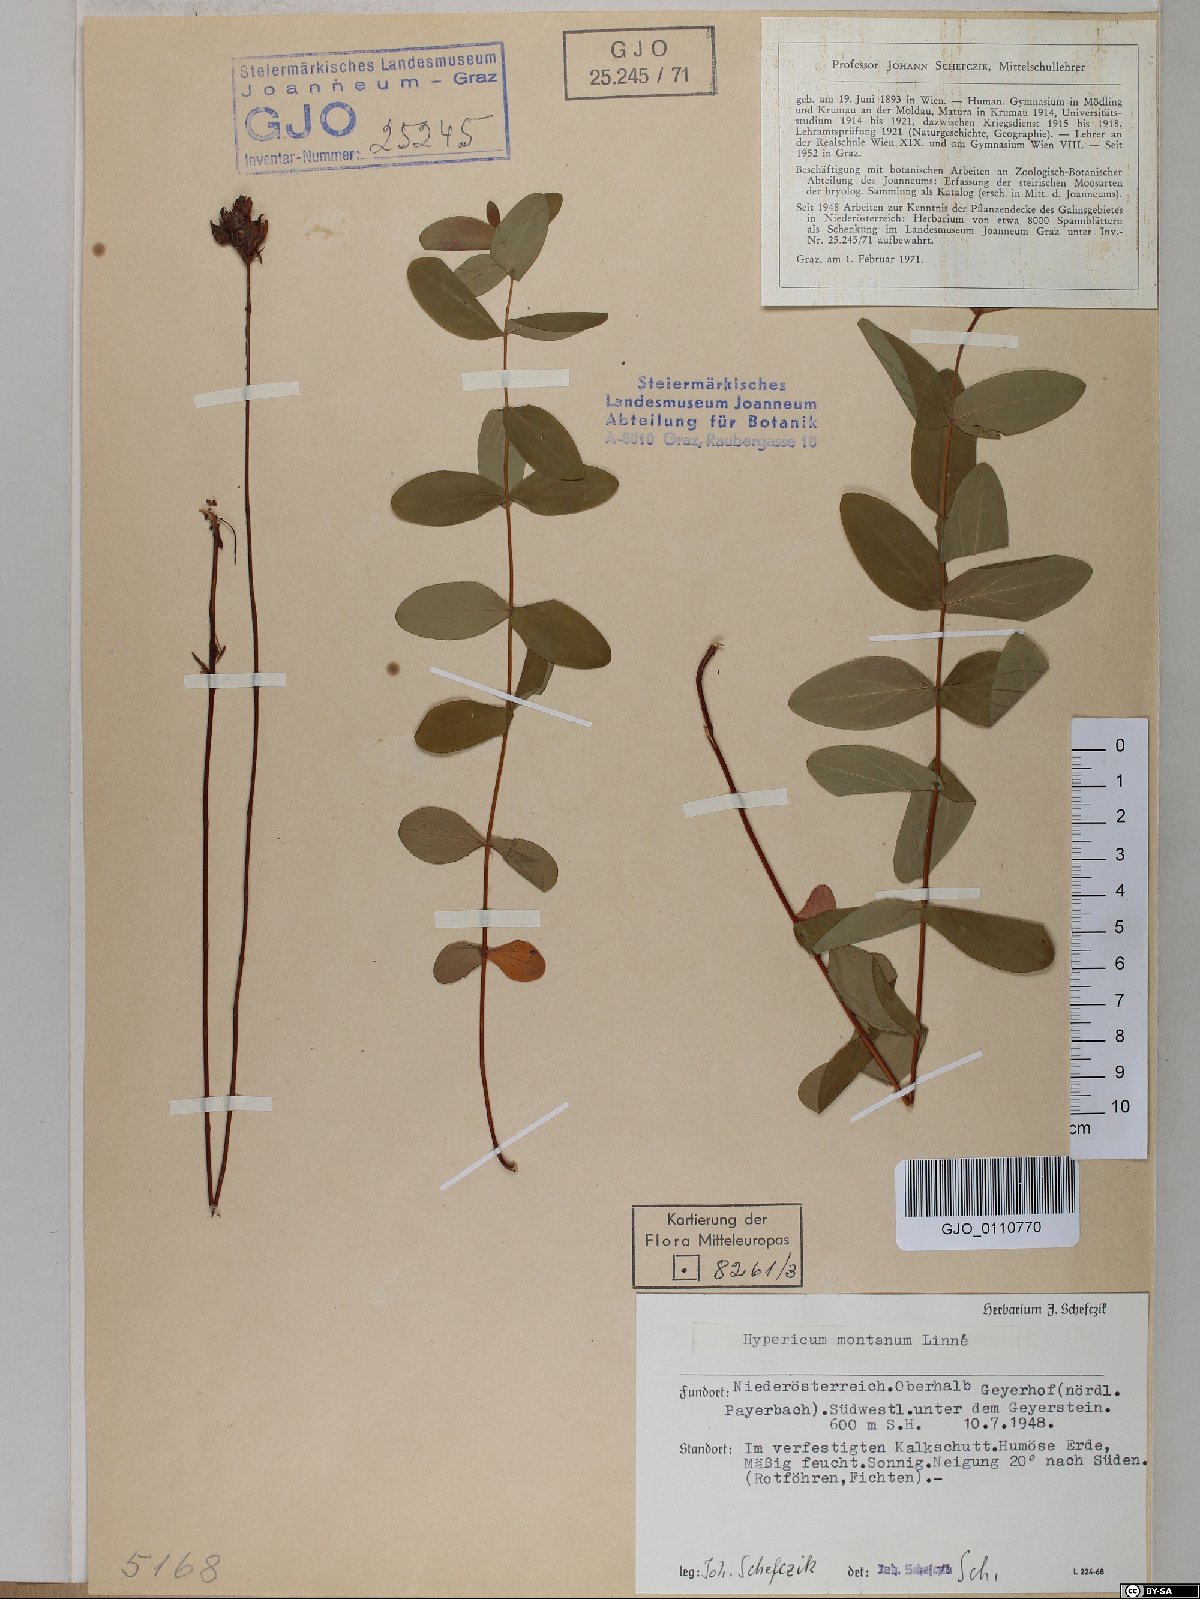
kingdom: Plantae
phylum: Tracheophyta
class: Magnoliopsida
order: Malpighiales
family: Hypericaceae
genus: Hypericum
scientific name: Hypericum montanum
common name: Pale st. john's-wort
